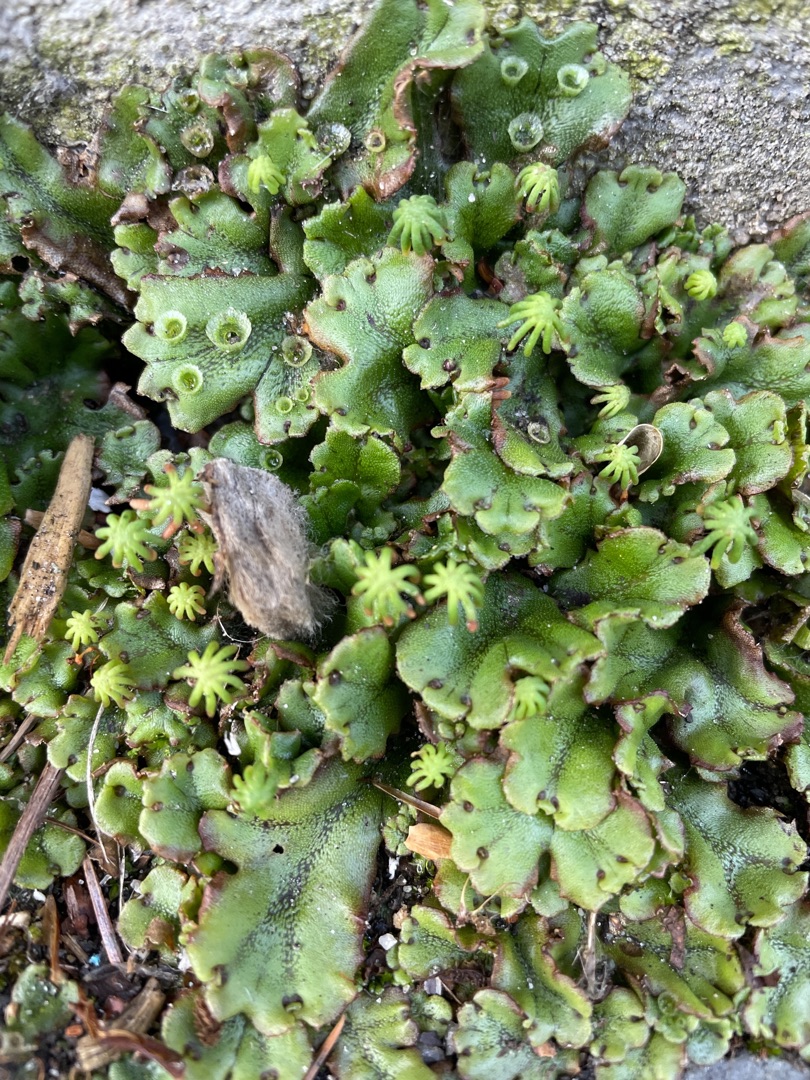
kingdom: Plantae
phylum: Marchantiophyta
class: Marchantiopsida
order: Marchantiales
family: Marchantiaceae
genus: Marchantia
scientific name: Marchantia polymorpha
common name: Almindelig lungemos (underart)
